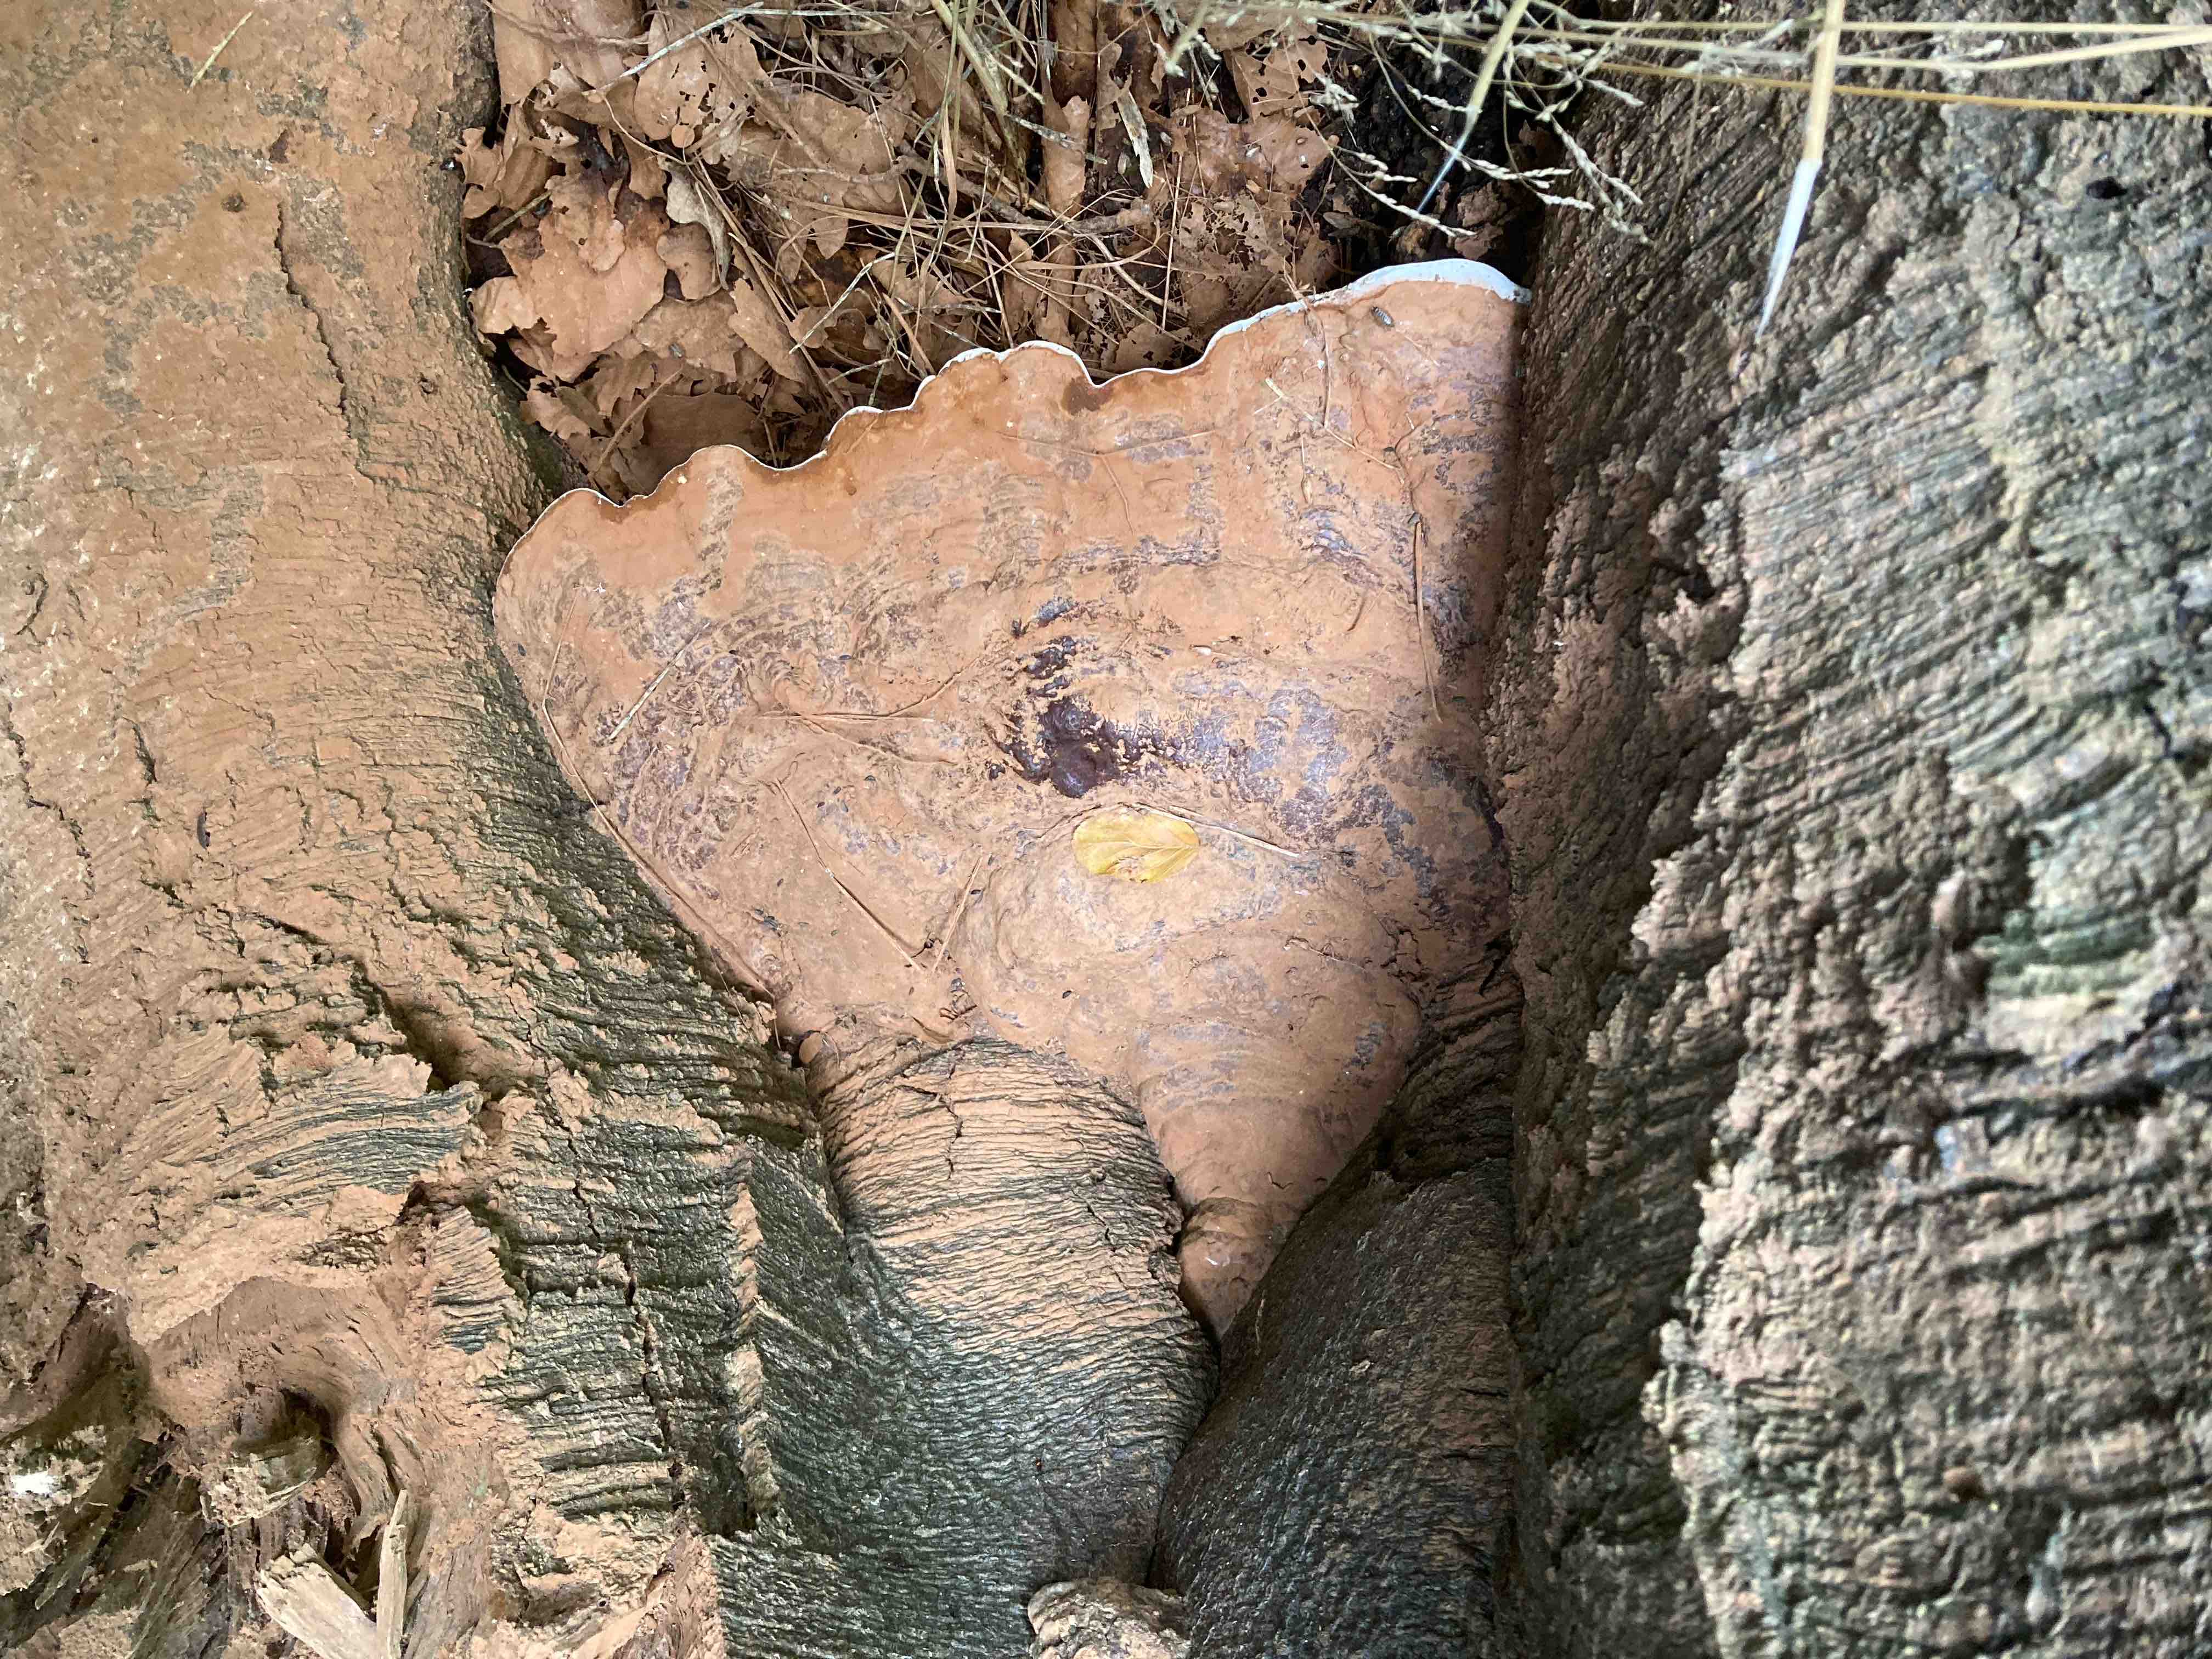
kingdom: Fungi
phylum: Basidiomycota
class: Agaricomycetes
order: Polyporales
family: Polyporaceae
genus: Ganoderma
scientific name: Ganoderma pfeifferi
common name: kobberrød lakporesvamp
